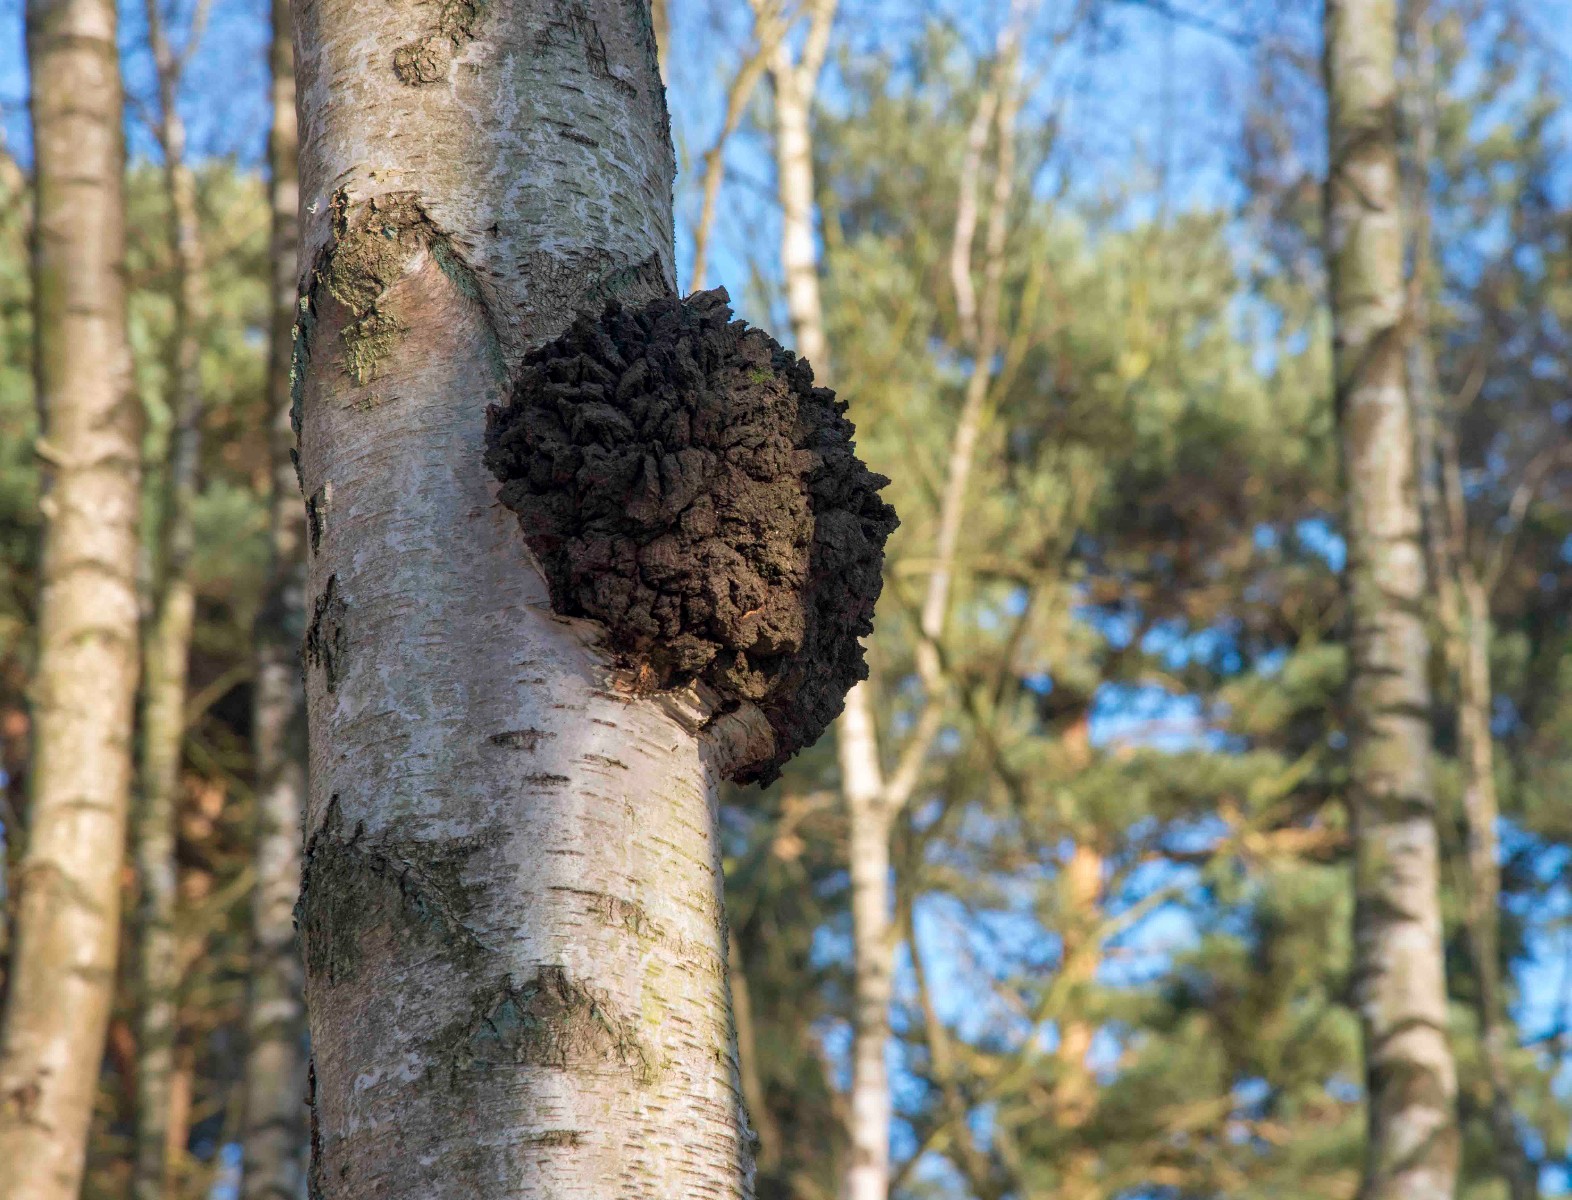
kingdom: Fungi
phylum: Basidiomycota
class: Agaricomycetes
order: Hymenochaetales
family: Hymenochaetaceae
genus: Inonotus
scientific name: Inonotus obliquus
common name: birke-spejlporesvamp
